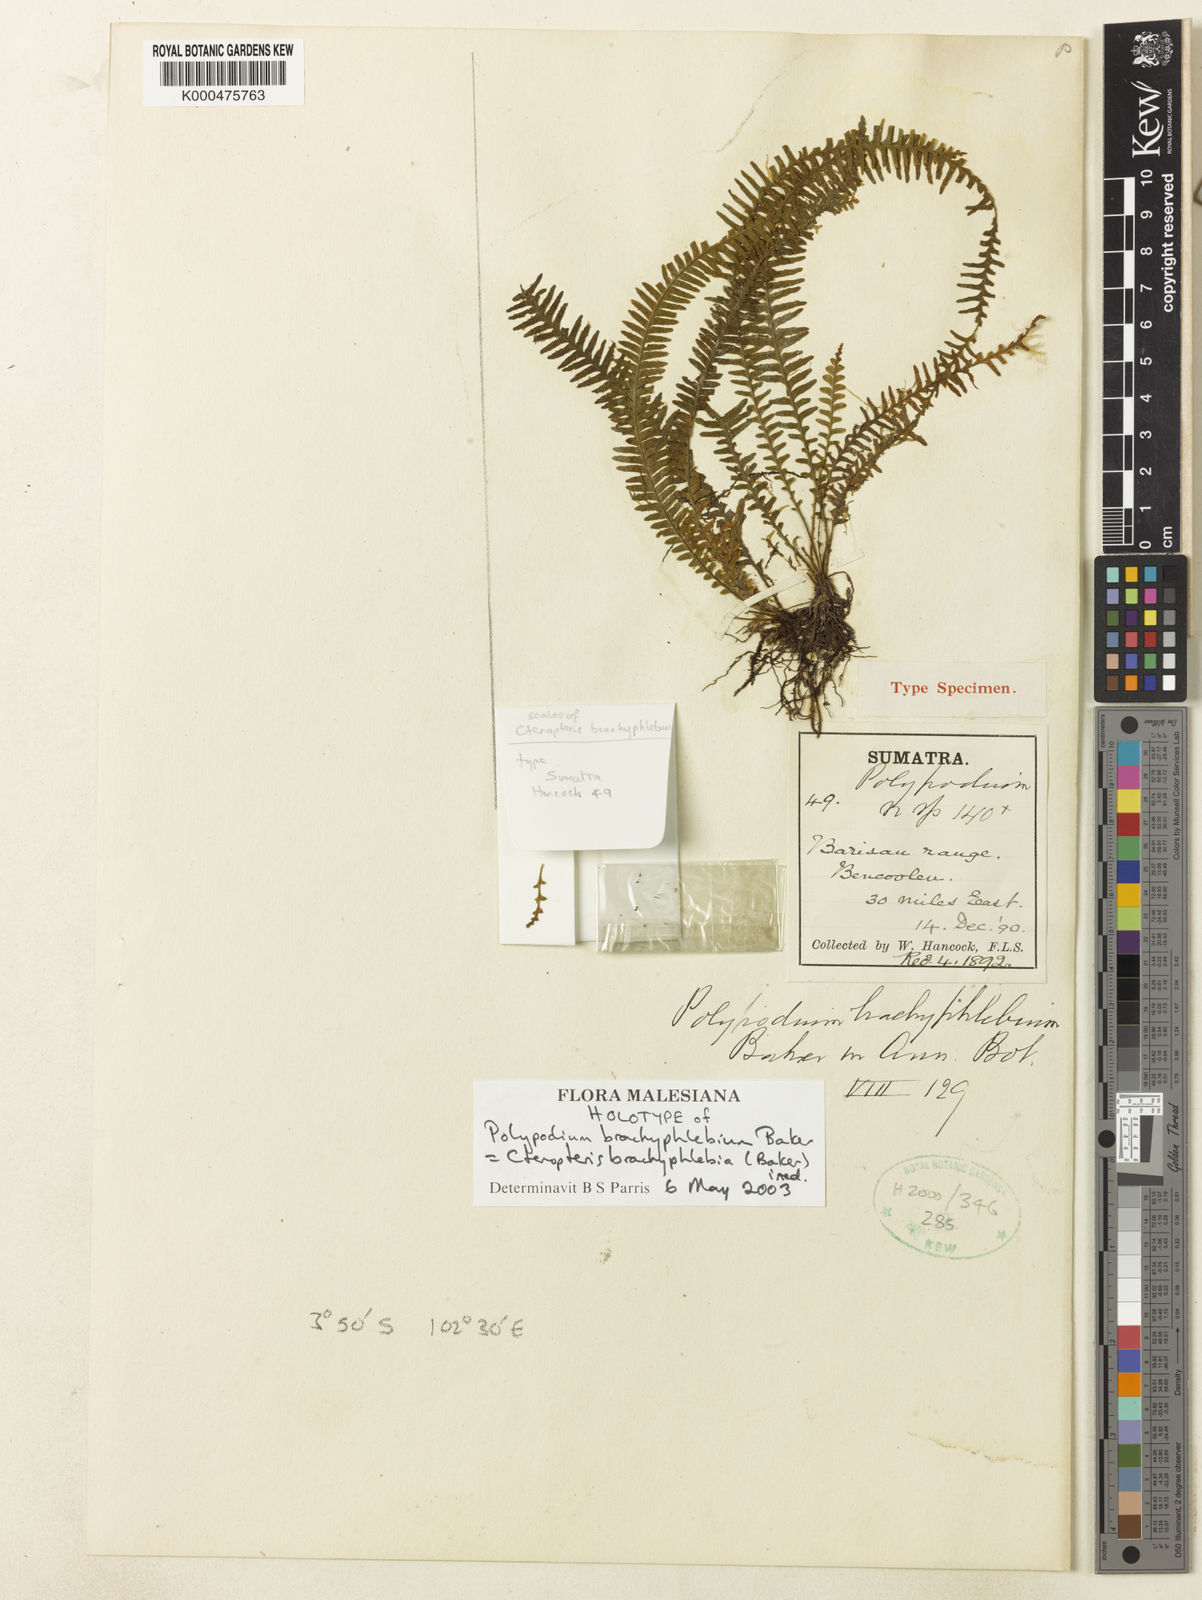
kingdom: Plantae
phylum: Tracheophyta
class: Polypodiopsida
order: Polypodiales
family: Polypodiaceae
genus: Grammitis
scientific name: Grammitis
